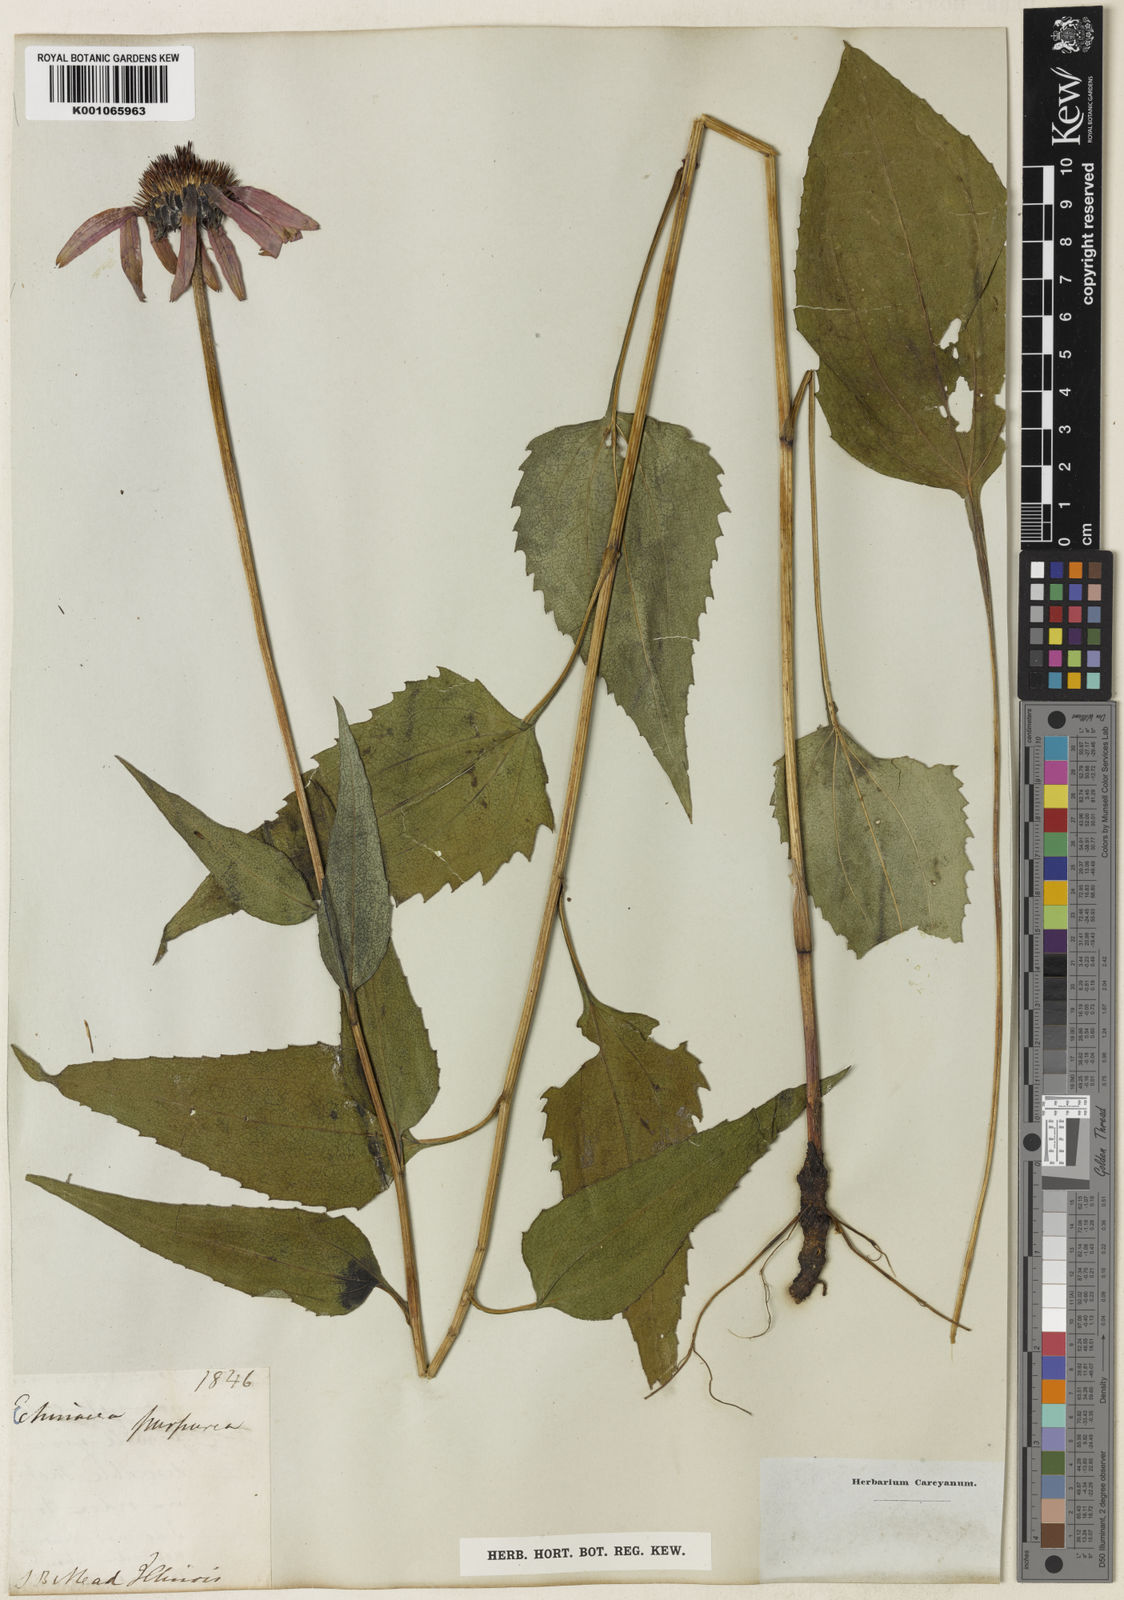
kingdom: Plantae
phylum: Tracheophyta
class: Magnoliopsida
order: Asterales
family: Asteraceae
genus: Echinacea
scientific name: Echinacea purpurea
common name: Broad-leaved purple coneflower
